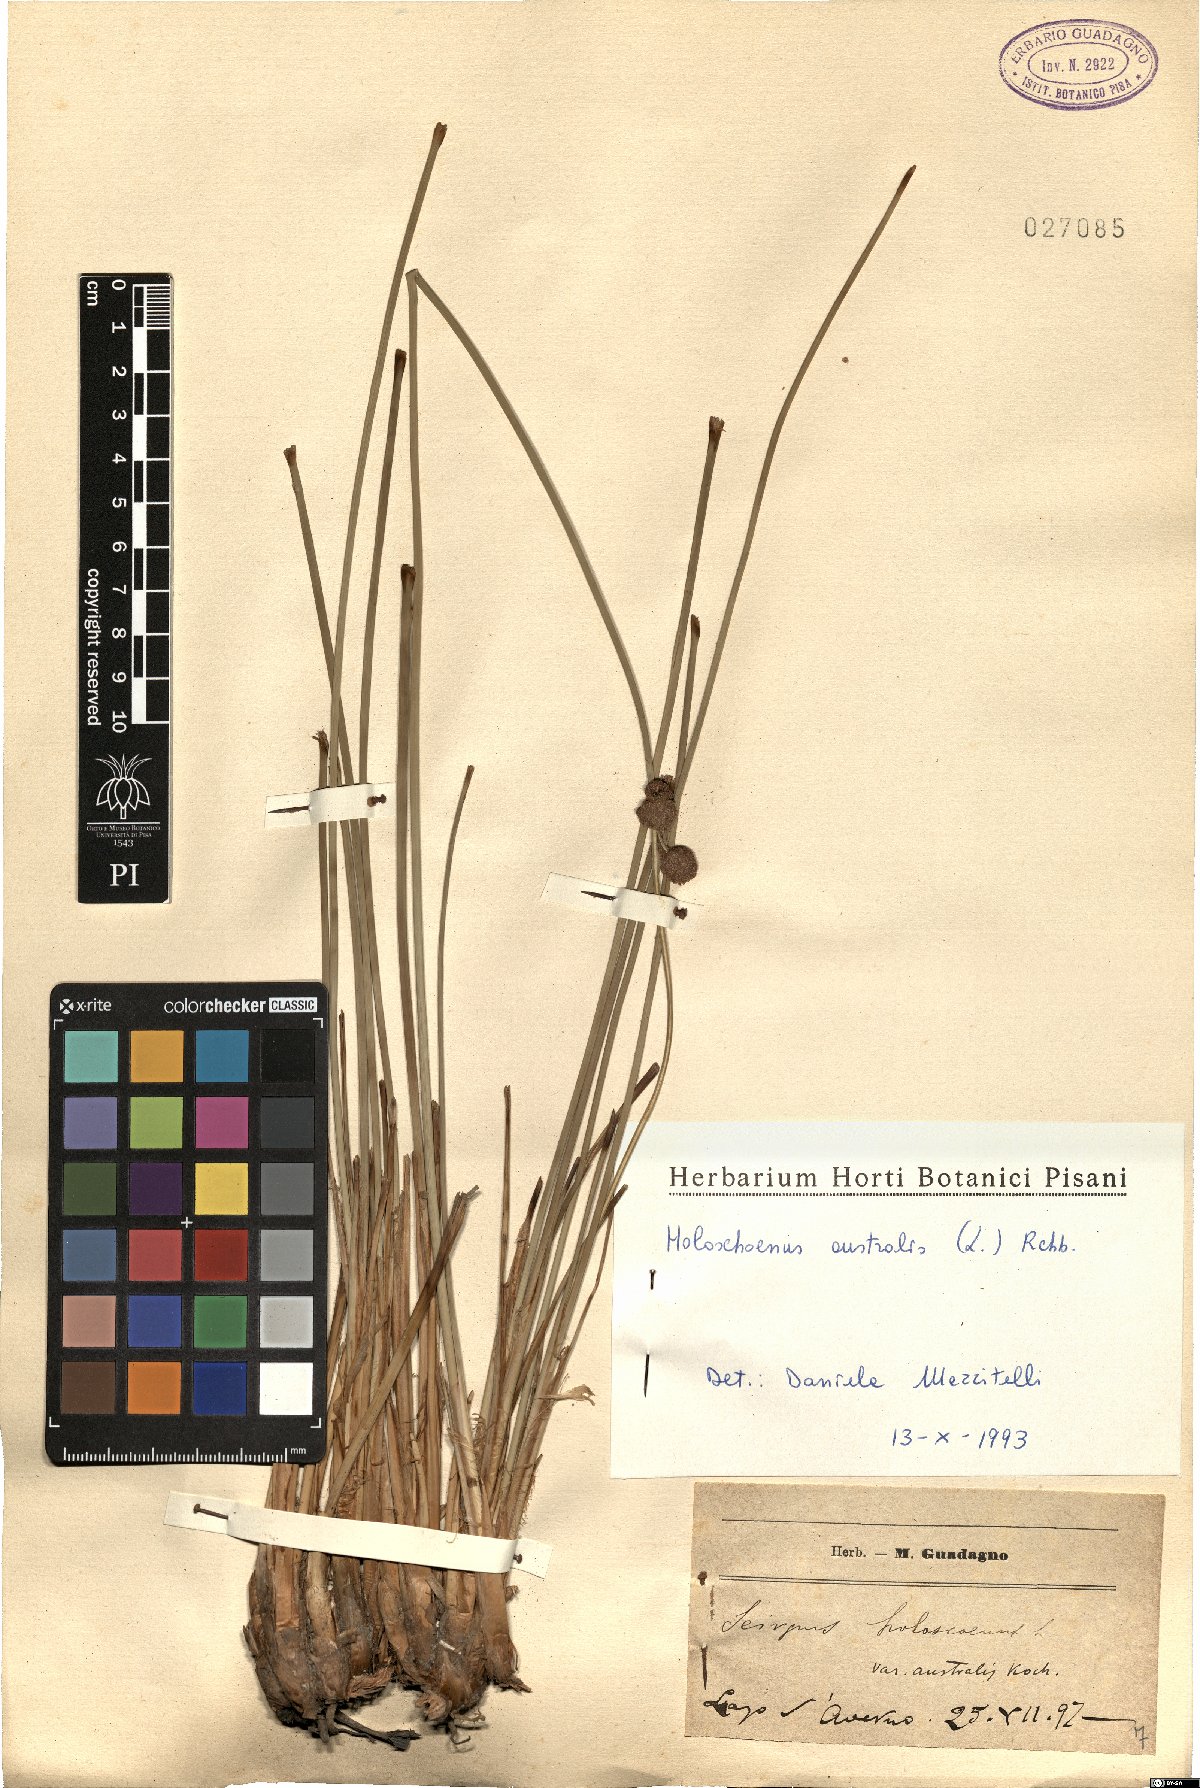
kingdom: Plantae
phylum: Tracheophyta
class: Liliopsida
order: Poales
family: Cyperaceae
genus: Scirpoides
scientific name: Scirpoides holoschoenus
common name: Round-headed club-rush
